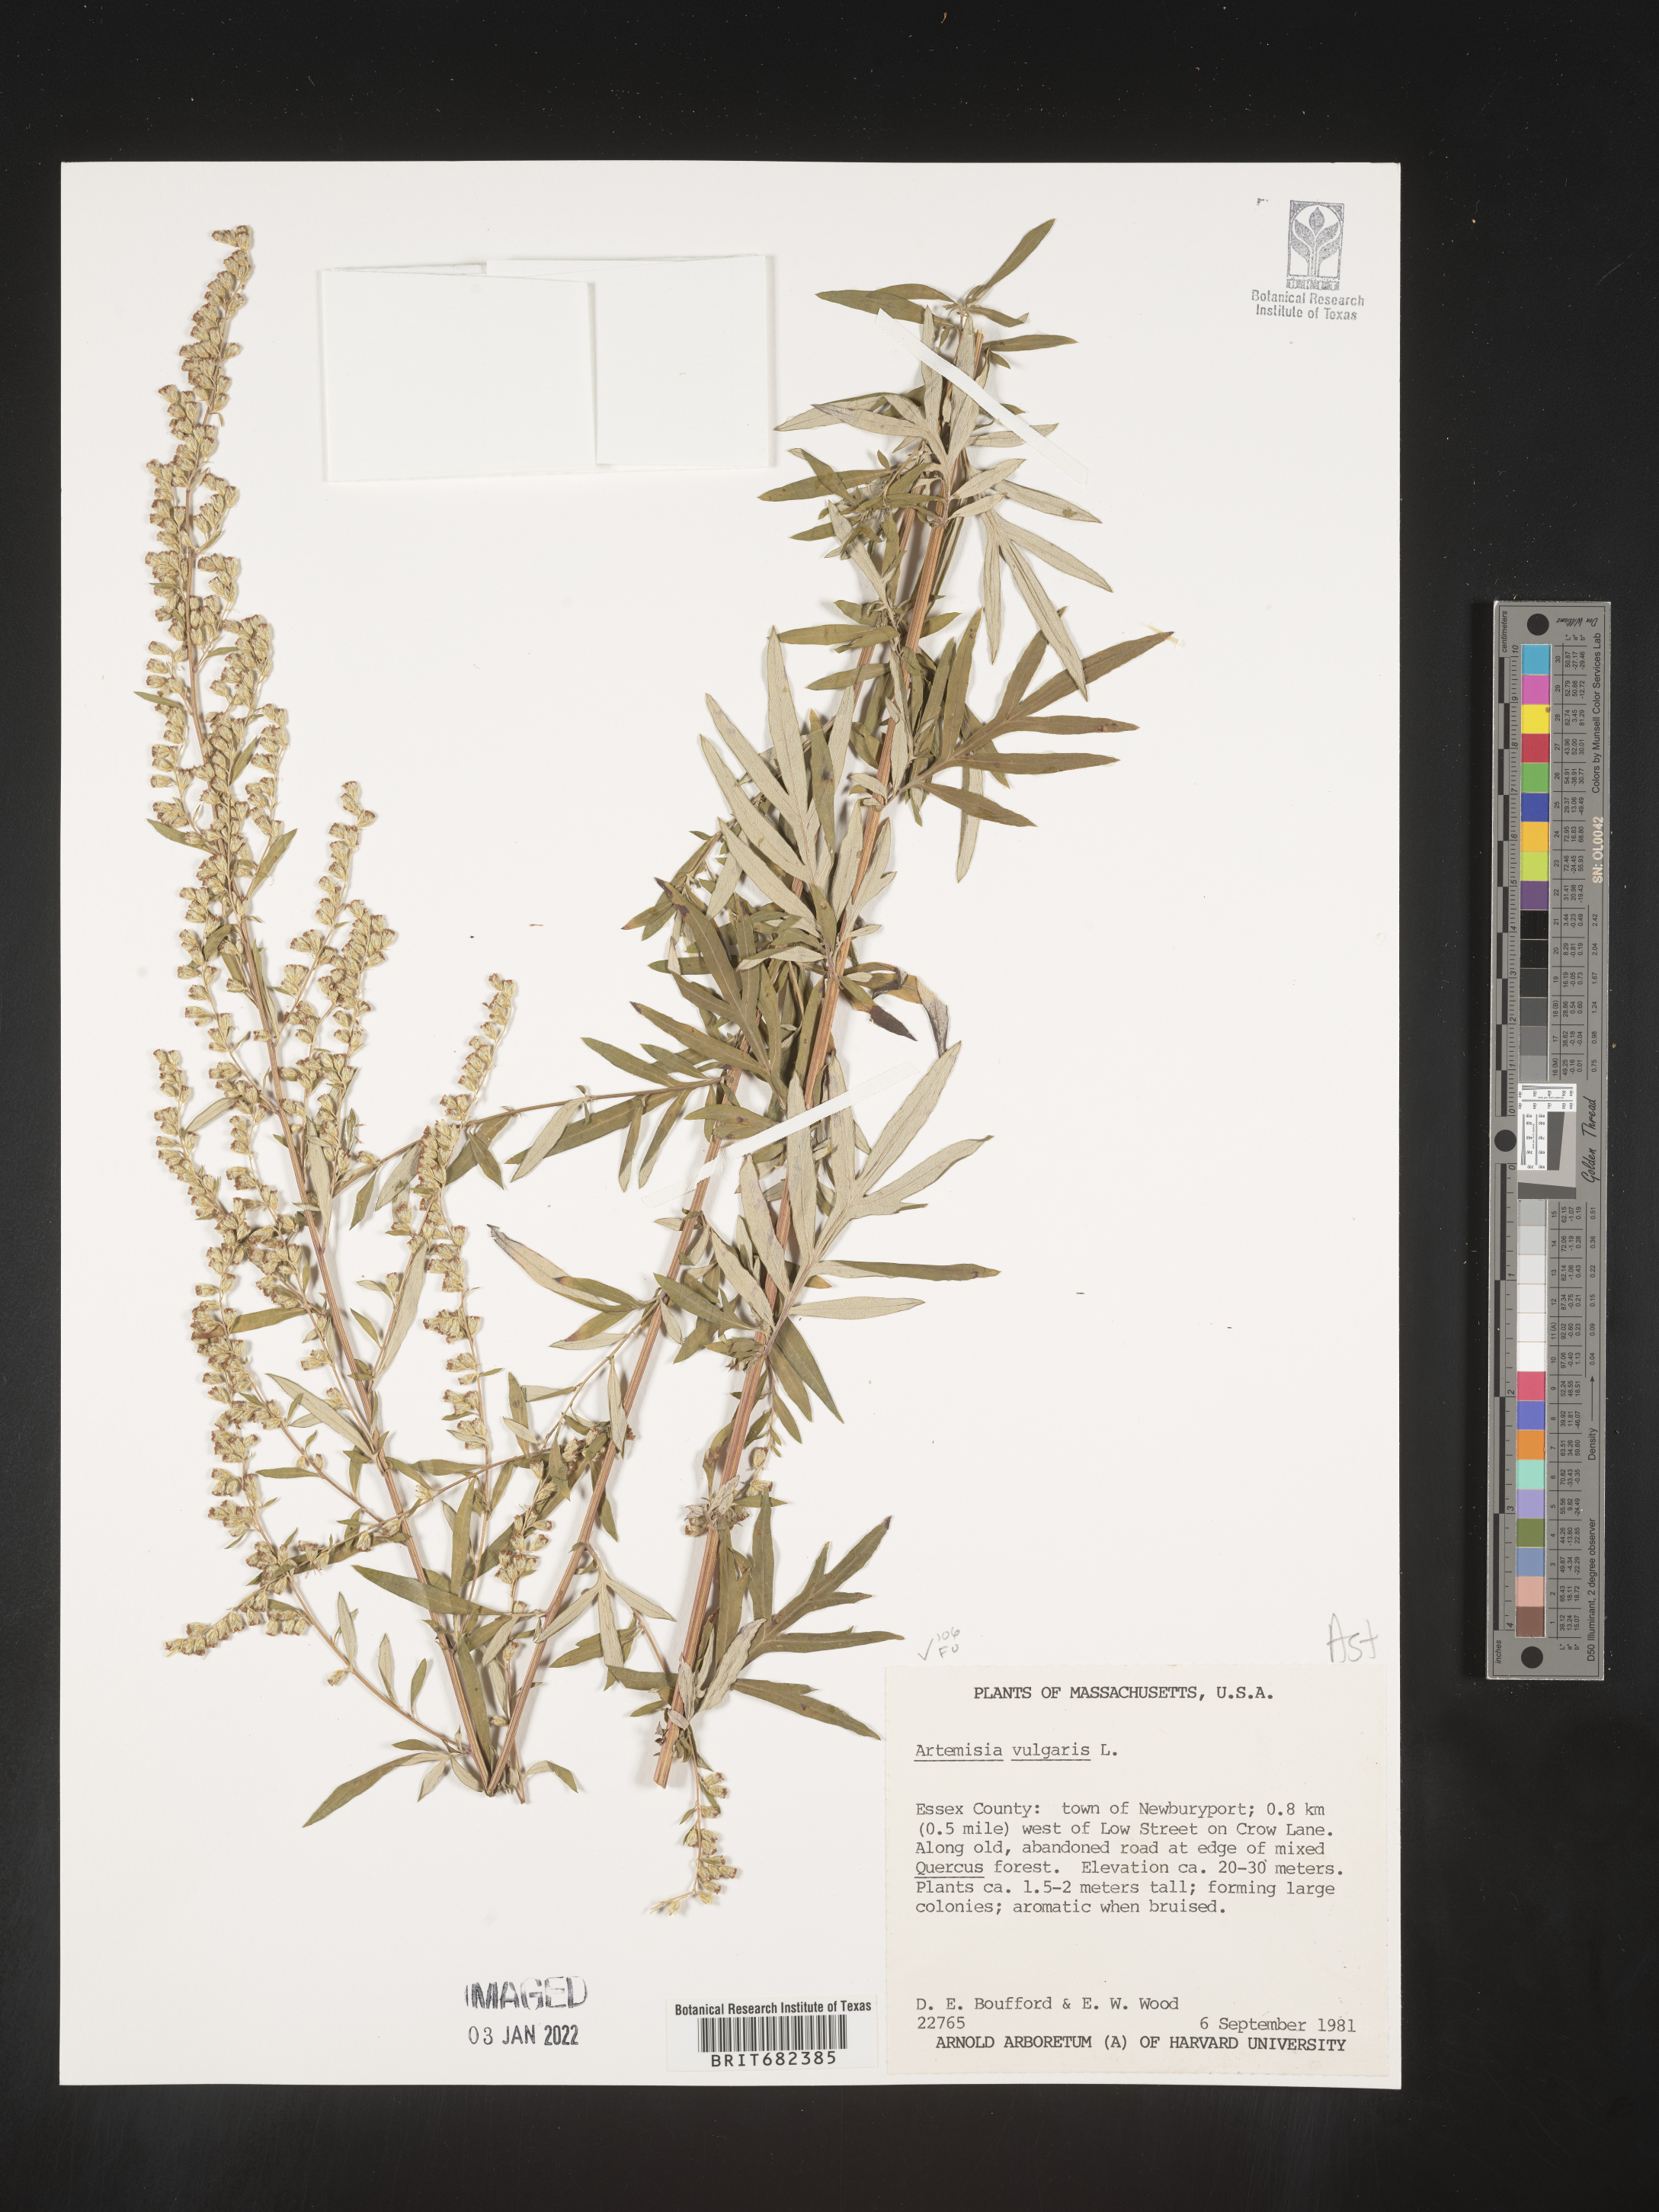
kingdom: Plantae
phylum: Tracheophyta
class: Magnoliopsida
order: Asterales
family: Asteraceae
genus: Artemisia
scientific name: Artemisia vulgaris
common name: Mugwort
